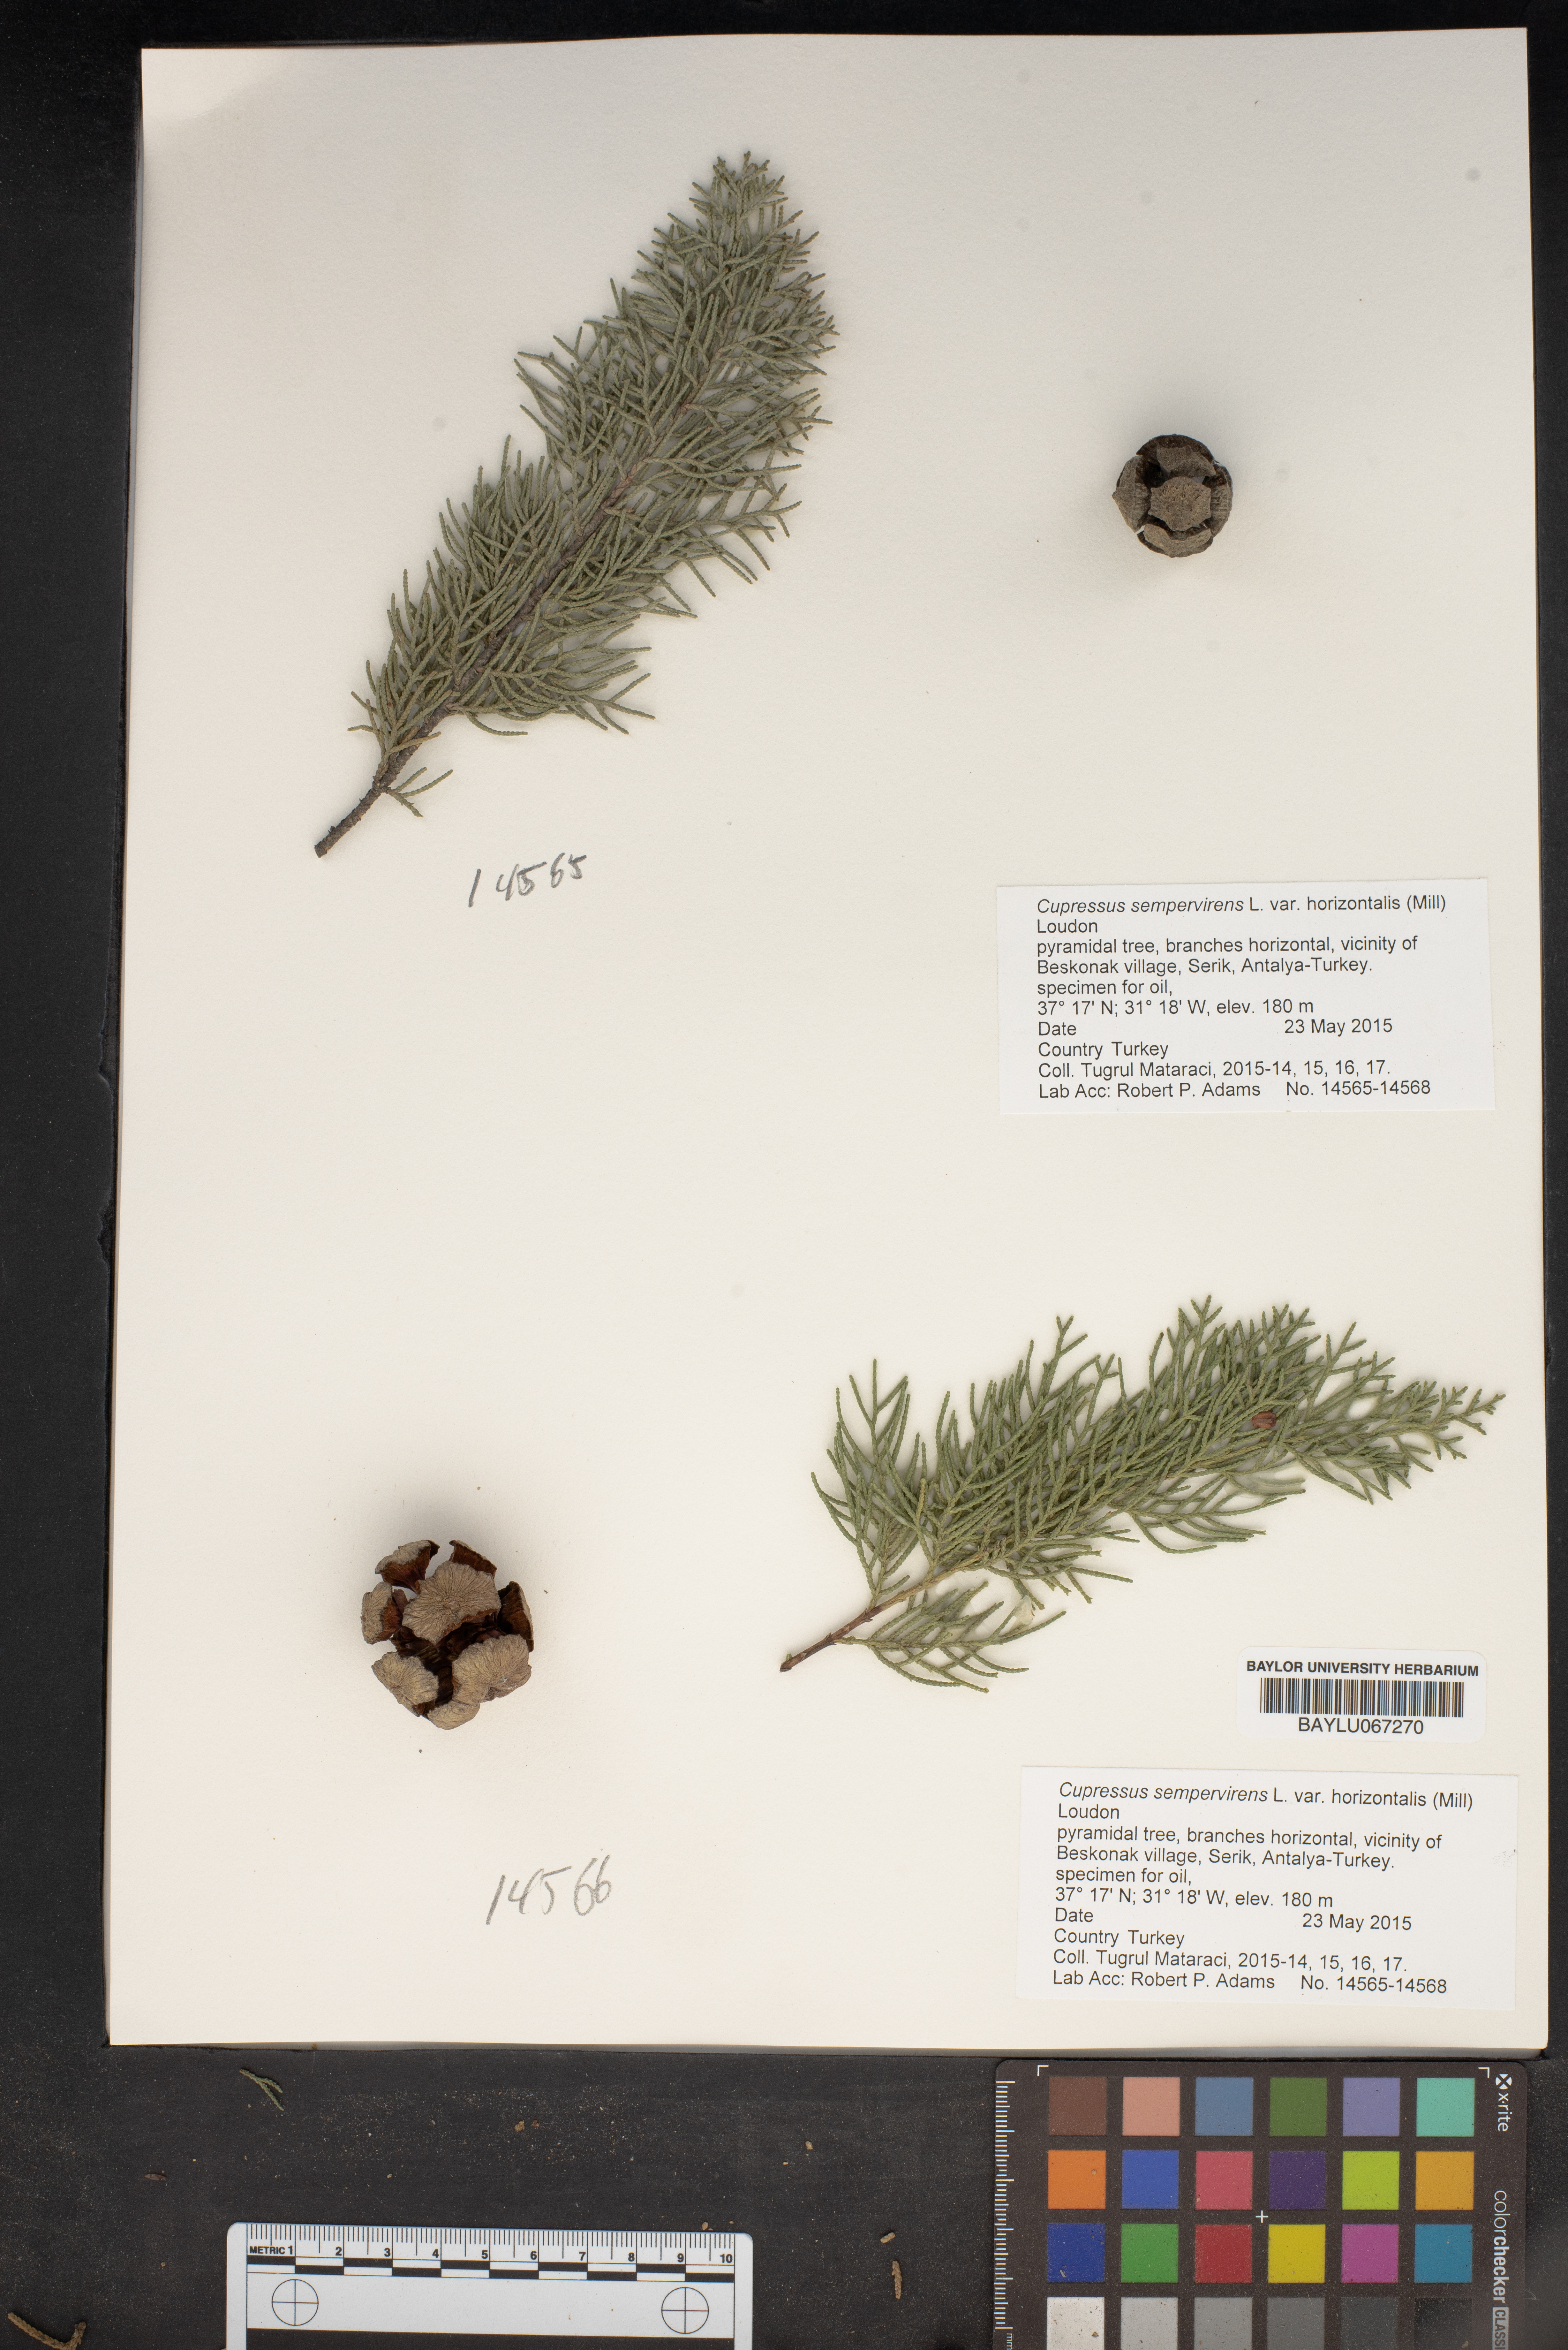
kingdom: Plantae
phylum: Tracheophyta
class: Pinopsida
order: Pinales
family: Cupressaceae
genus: Cupressus
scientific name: Cupressus sempervirens
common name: Italian cypress
